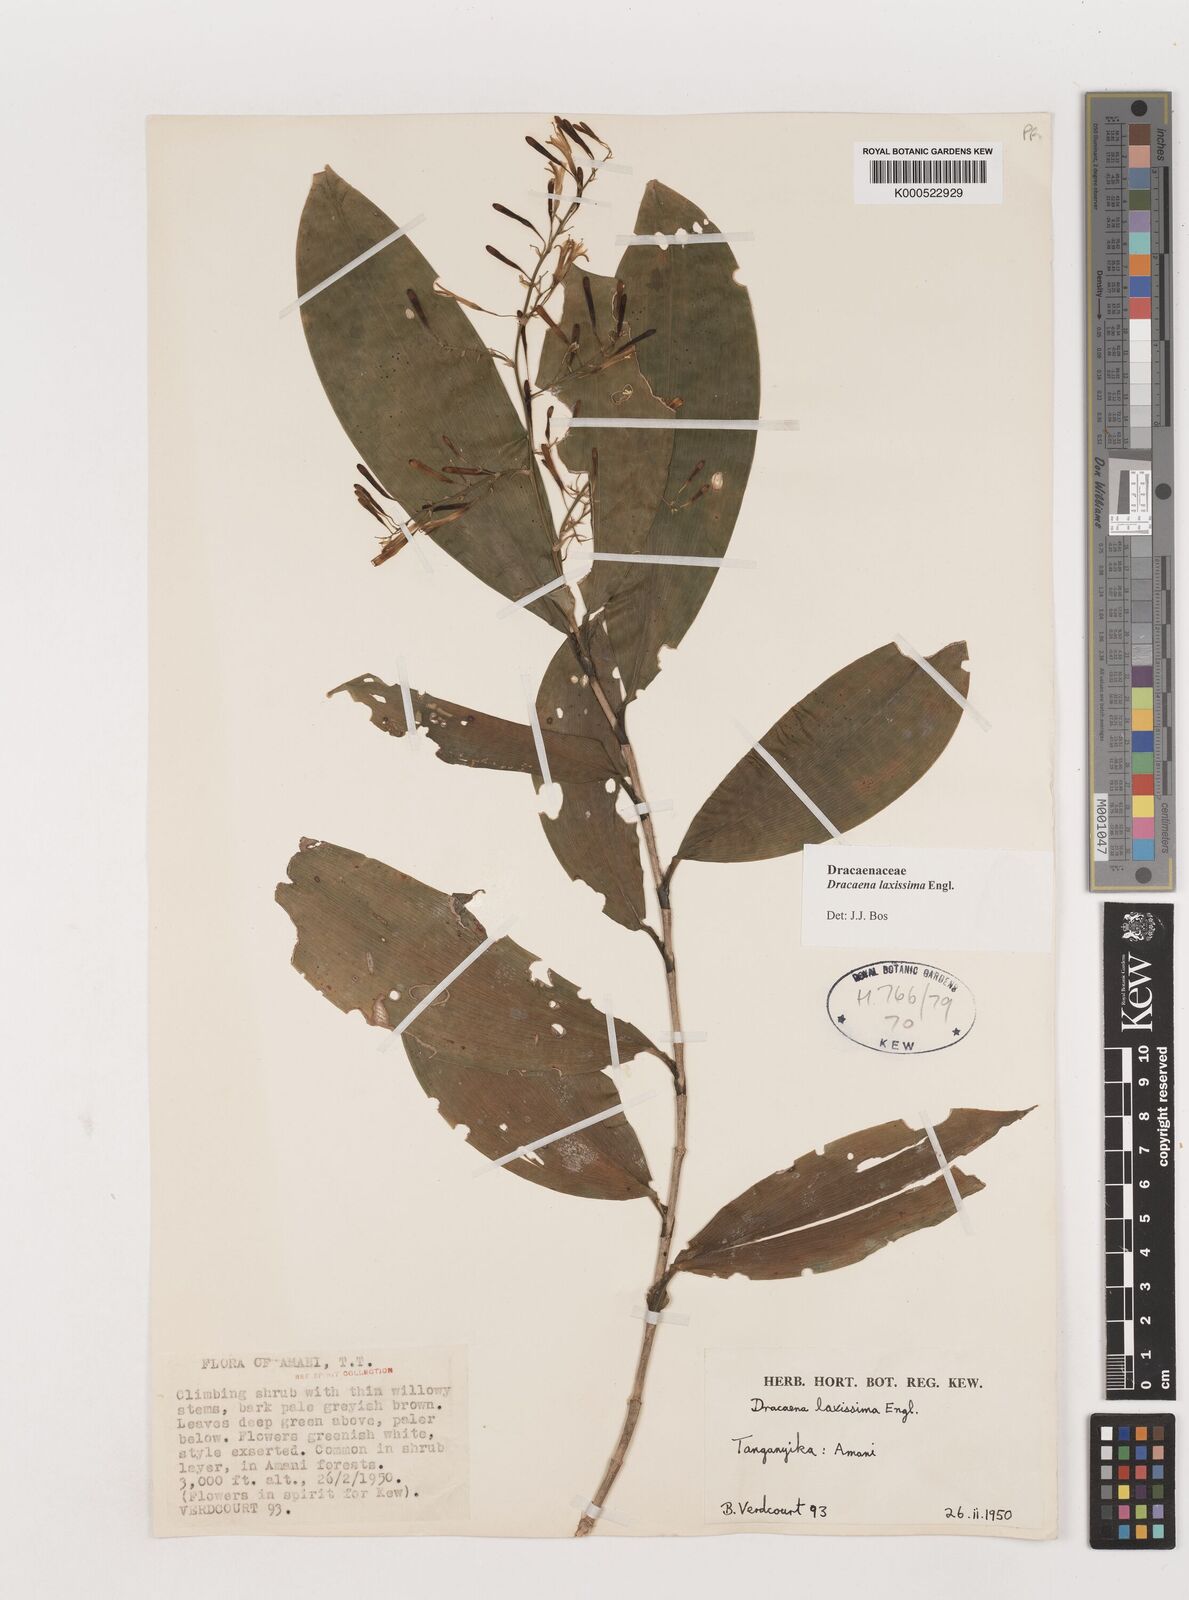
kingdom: Plantae
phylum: Tracheophyta
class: Liliopsida
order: Asparagales
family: Asparagaceae
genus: Dracaena
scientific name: Dracaena laxissima
